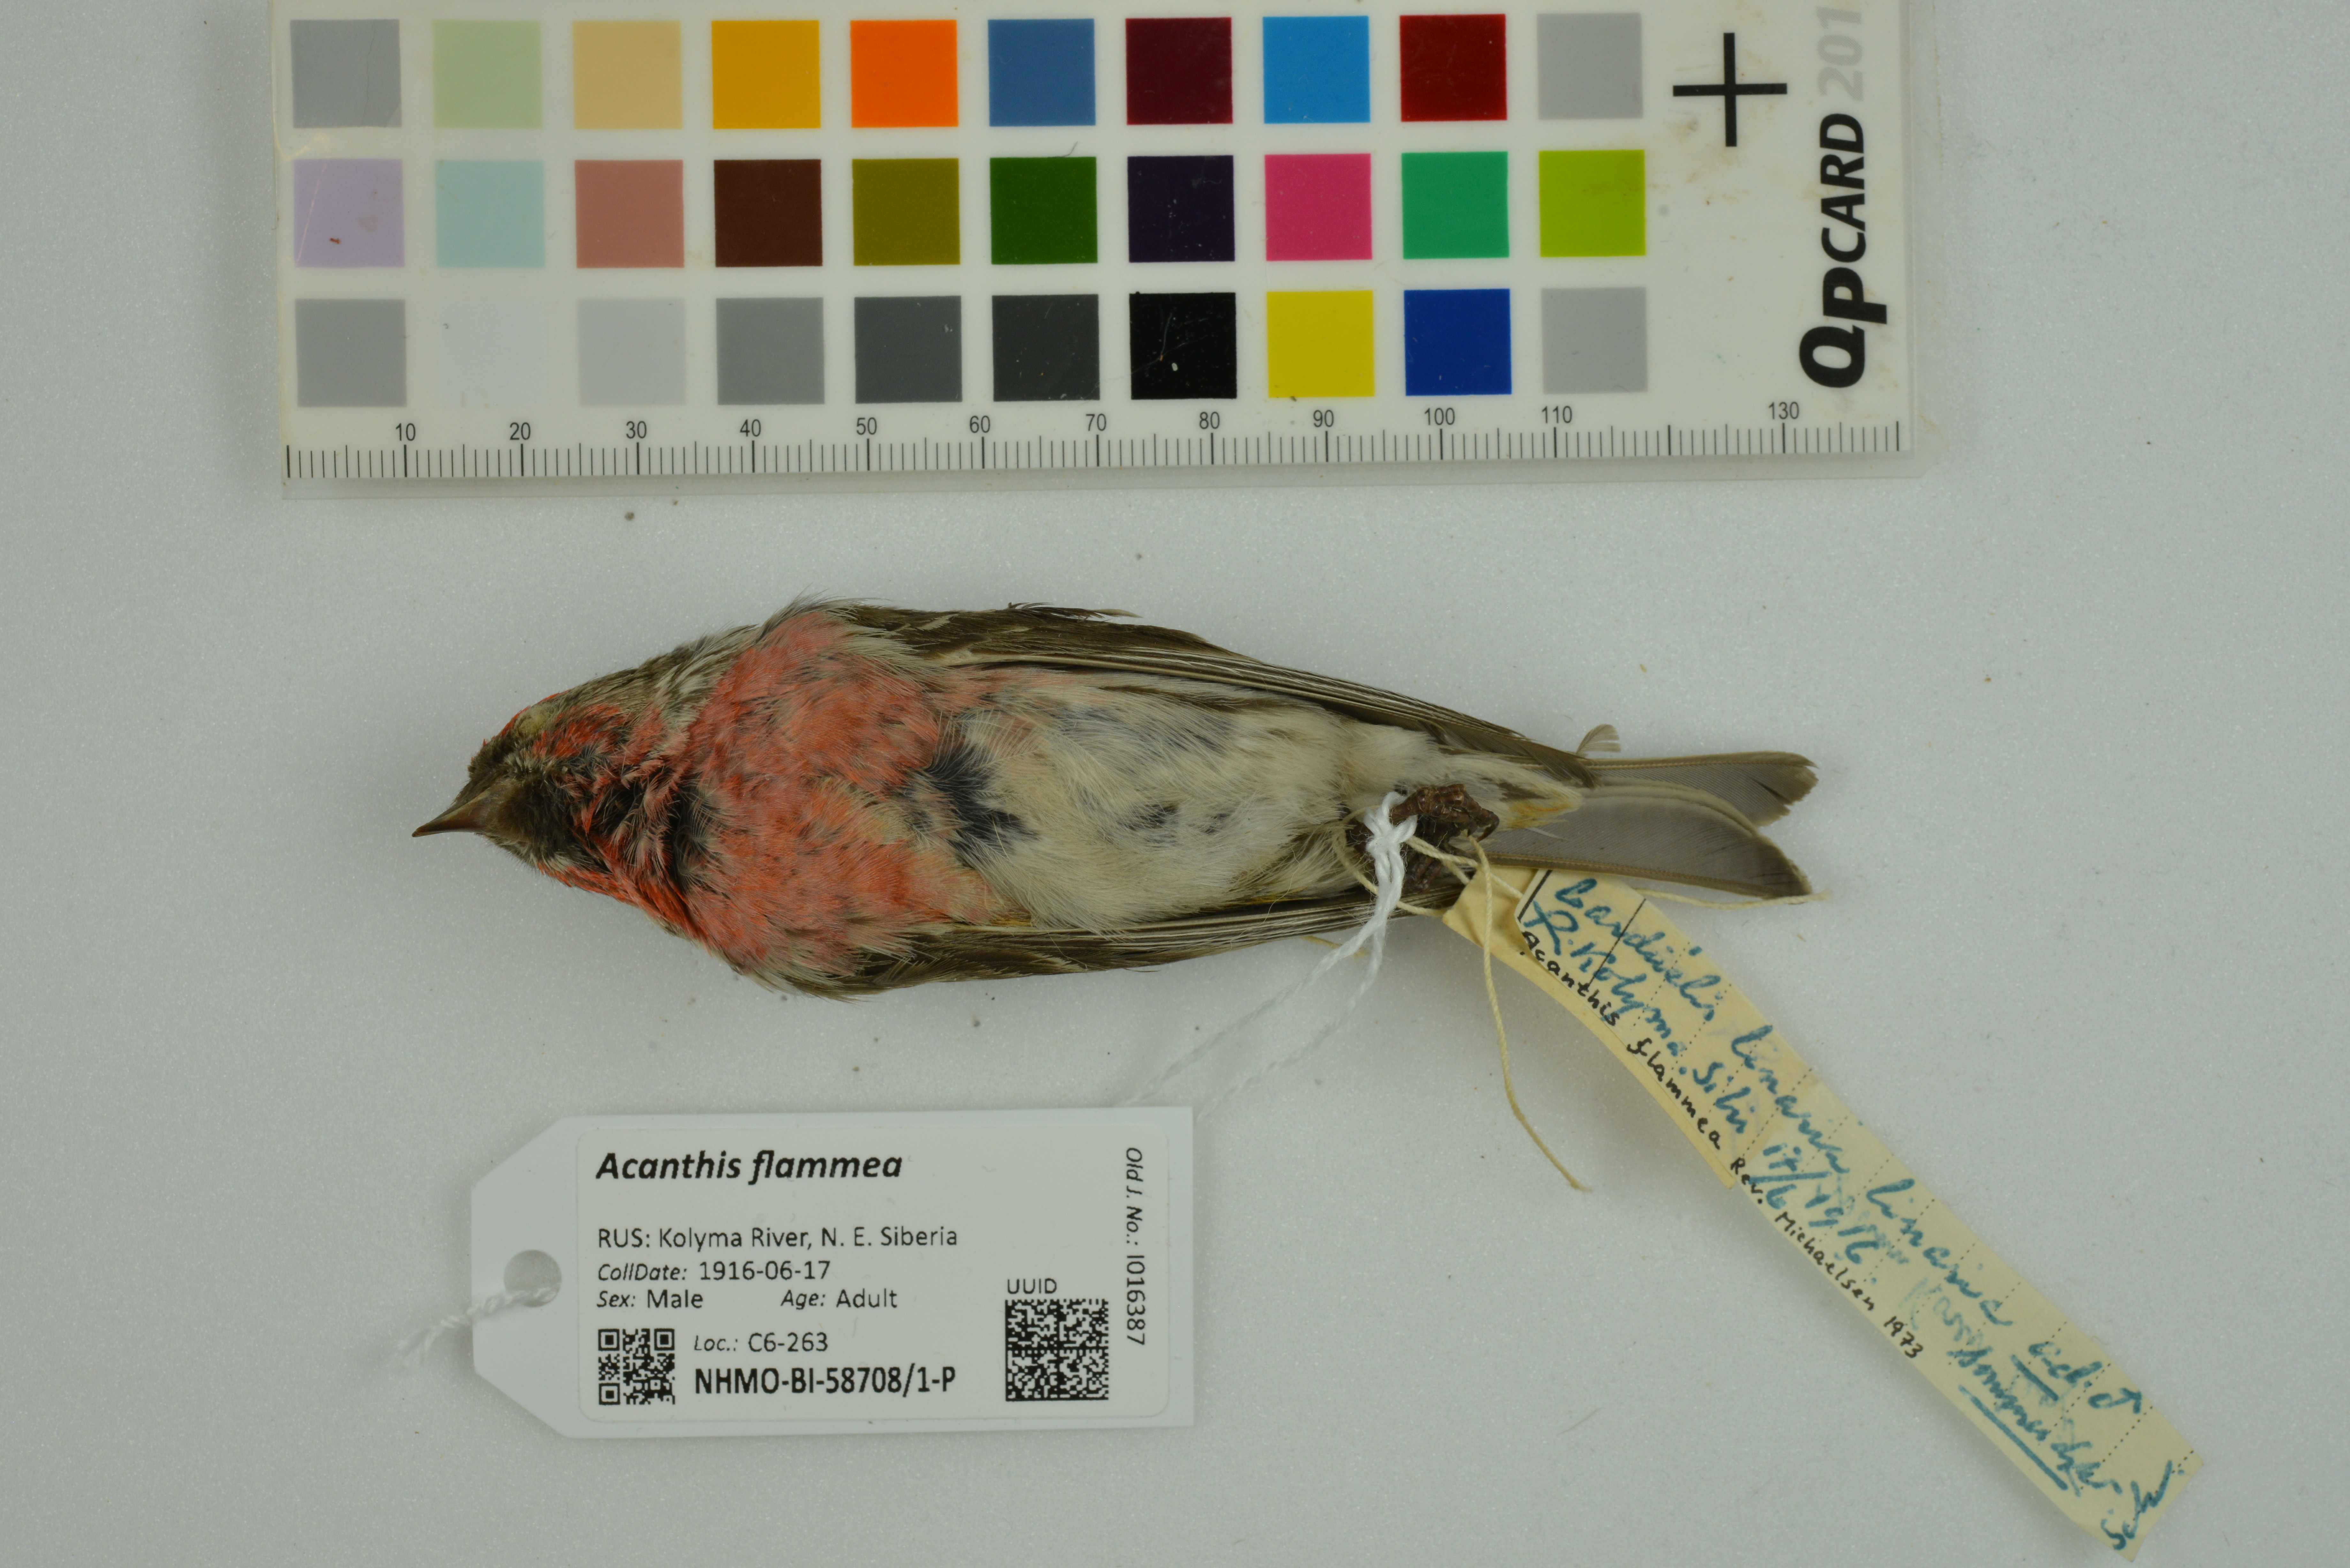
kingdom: Animalia
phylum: Chordata
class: Aves
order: Passeriformes
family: Fringillidae
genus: Acanthis
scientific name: Acanthis flammea
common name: Common redpoll
